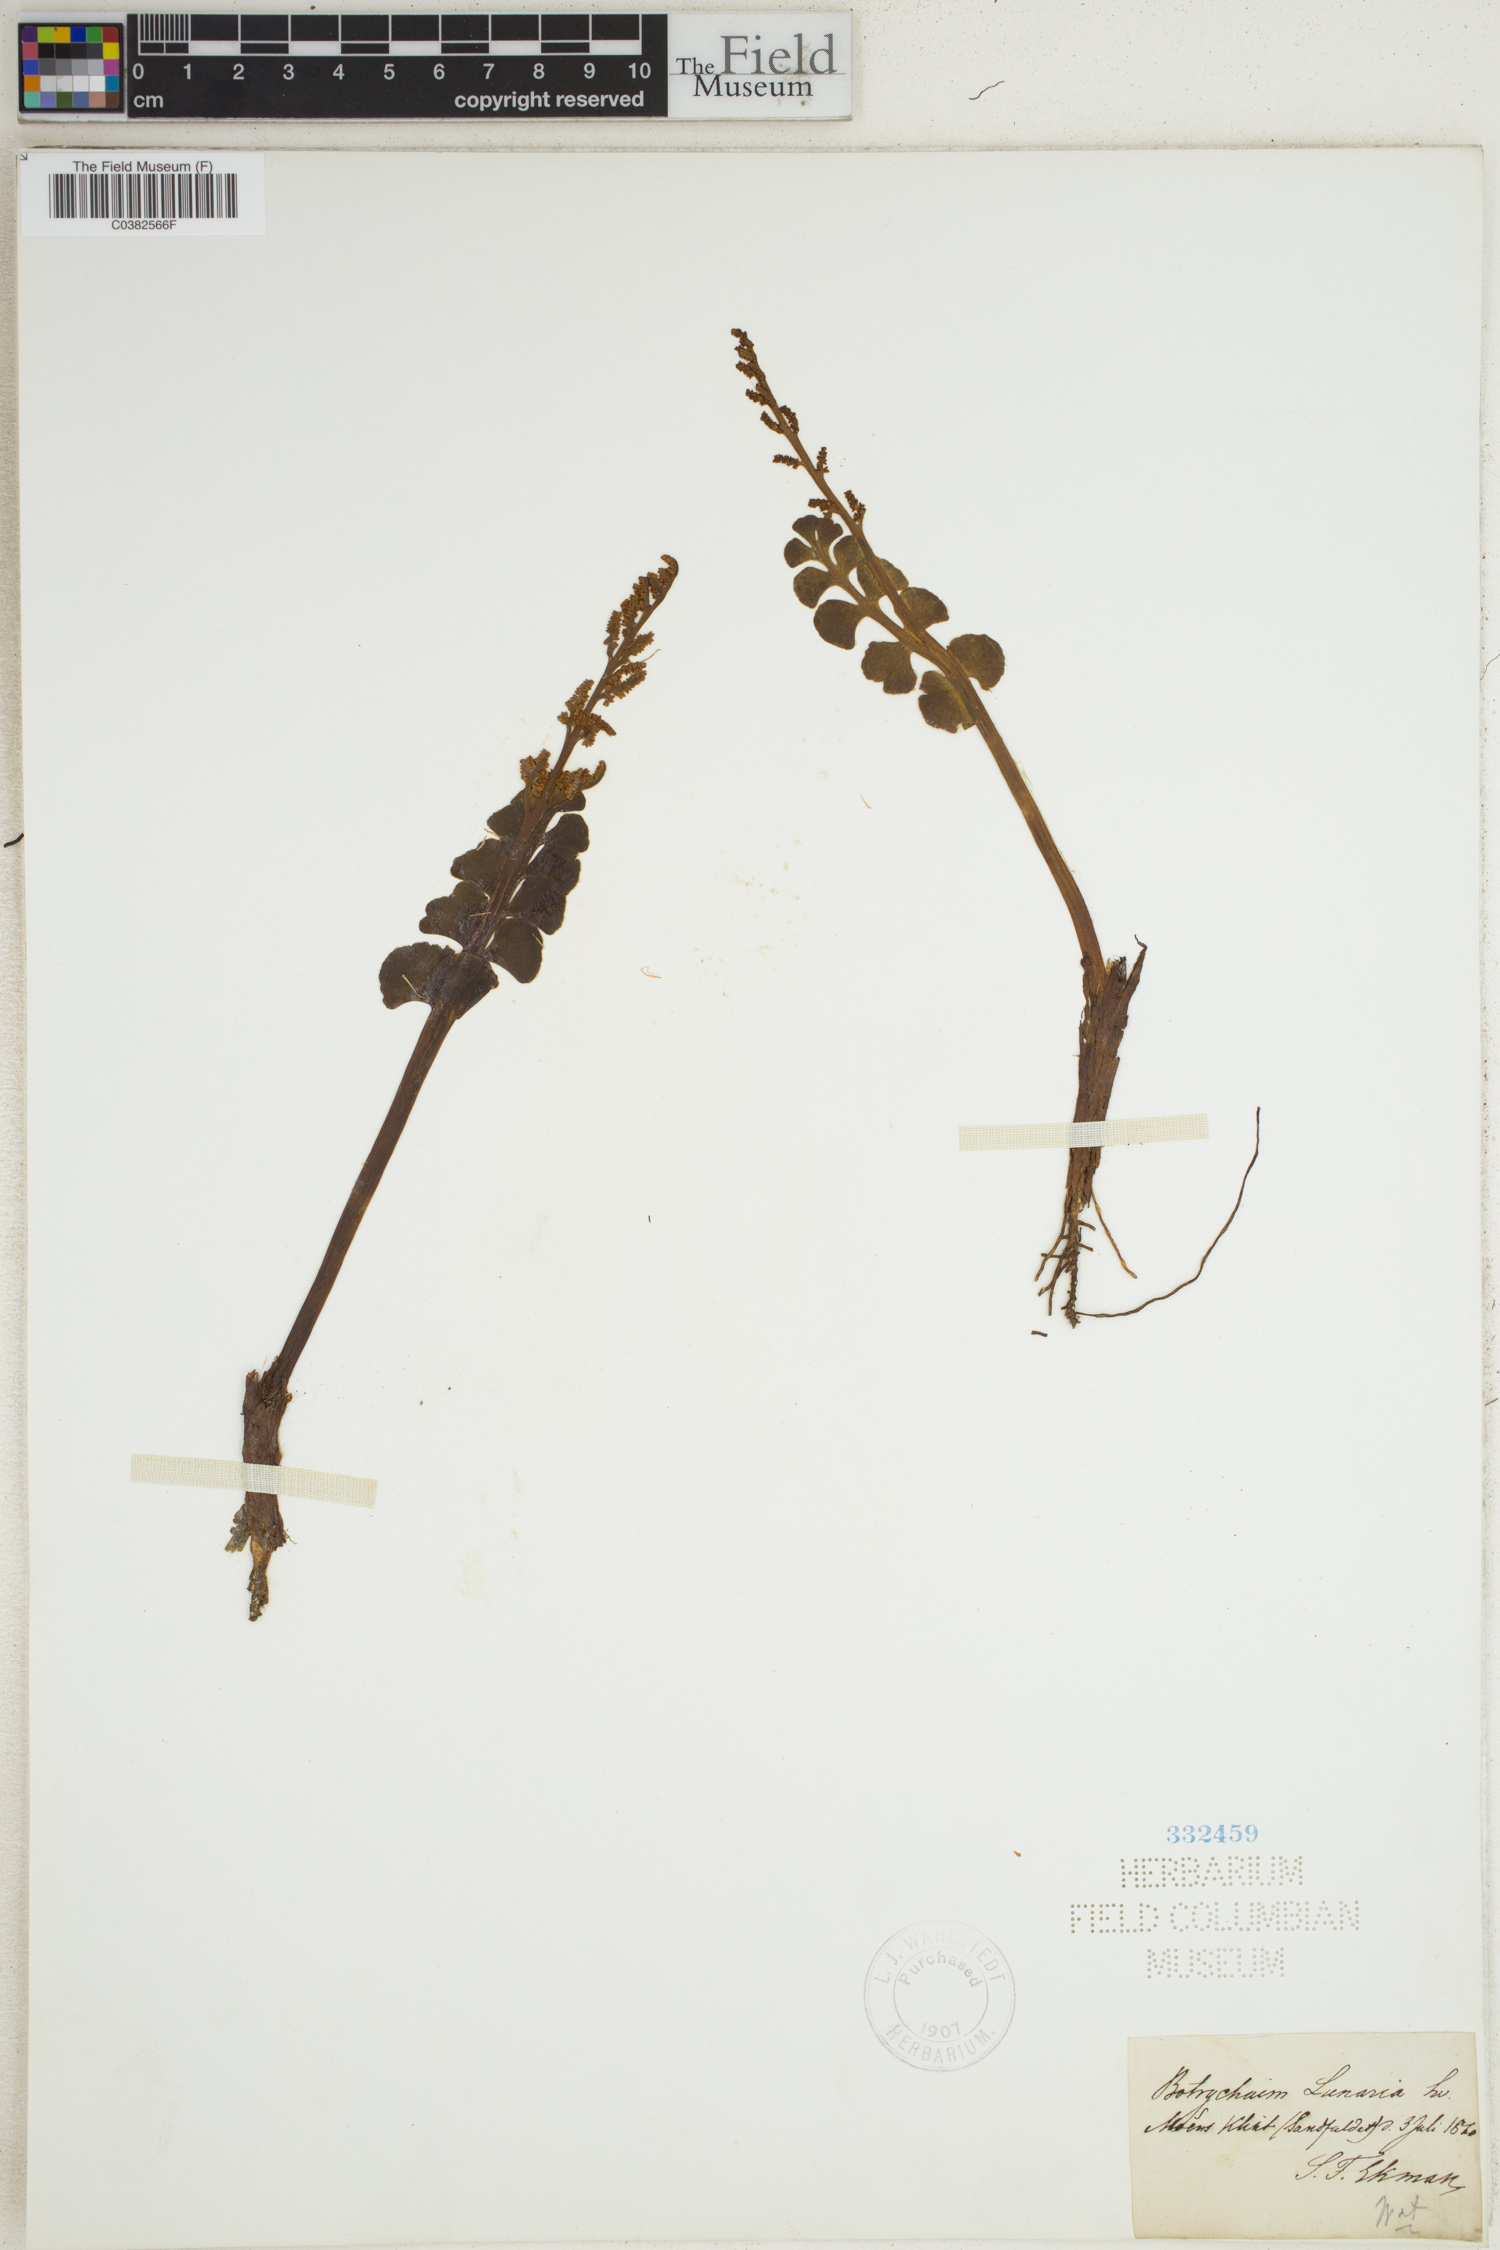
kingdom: Plantae
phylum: Tracheophyta
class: Polypodiopsida
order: Ophioglossales
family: Ophioglossaceae
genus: Botrychium
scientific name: Botrychium lunaria
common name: Moonwort
